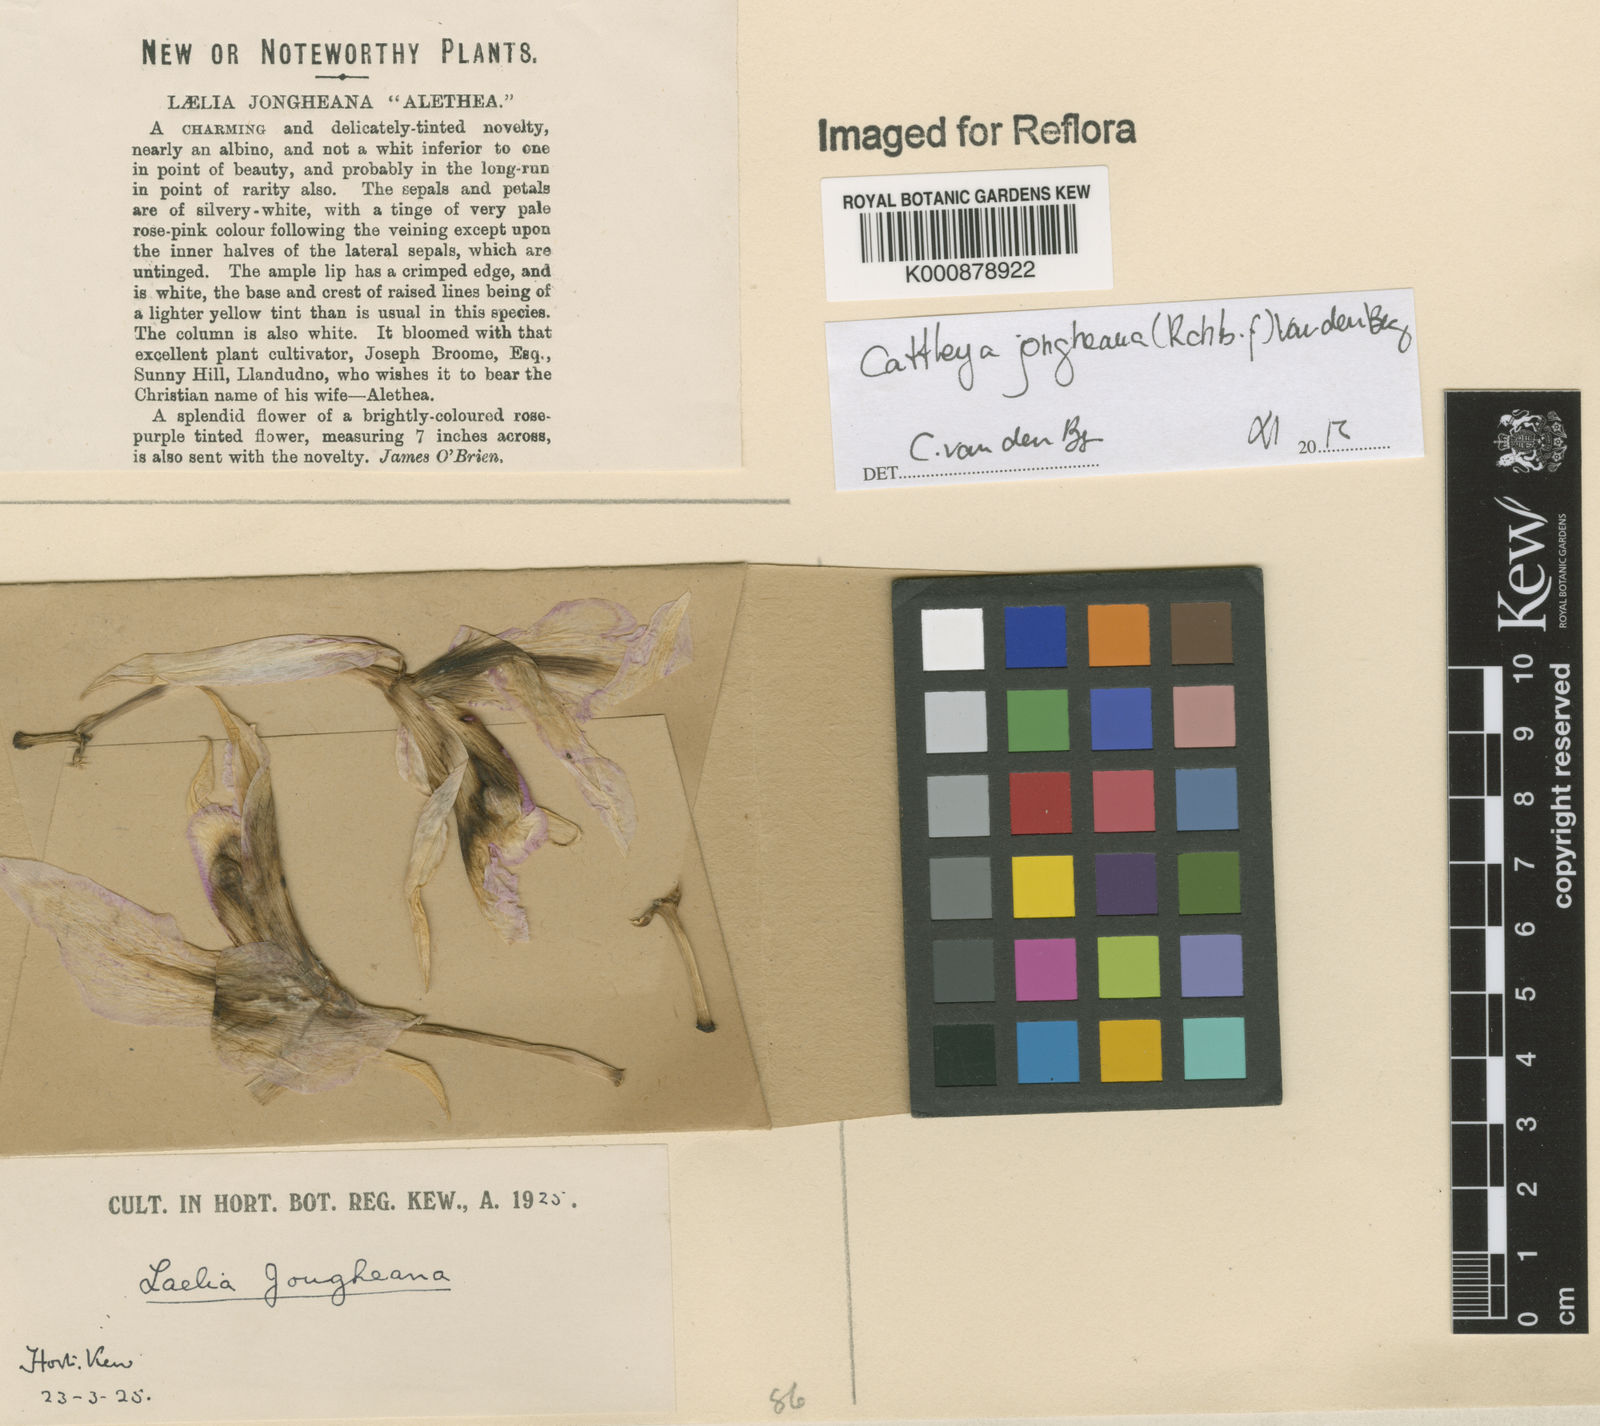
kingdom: Plantae
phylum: Tracheophyta
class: Liliopsida
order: Asparagales
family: Orchidaceae
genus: Cattleya
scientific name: Cattleya jongheana
